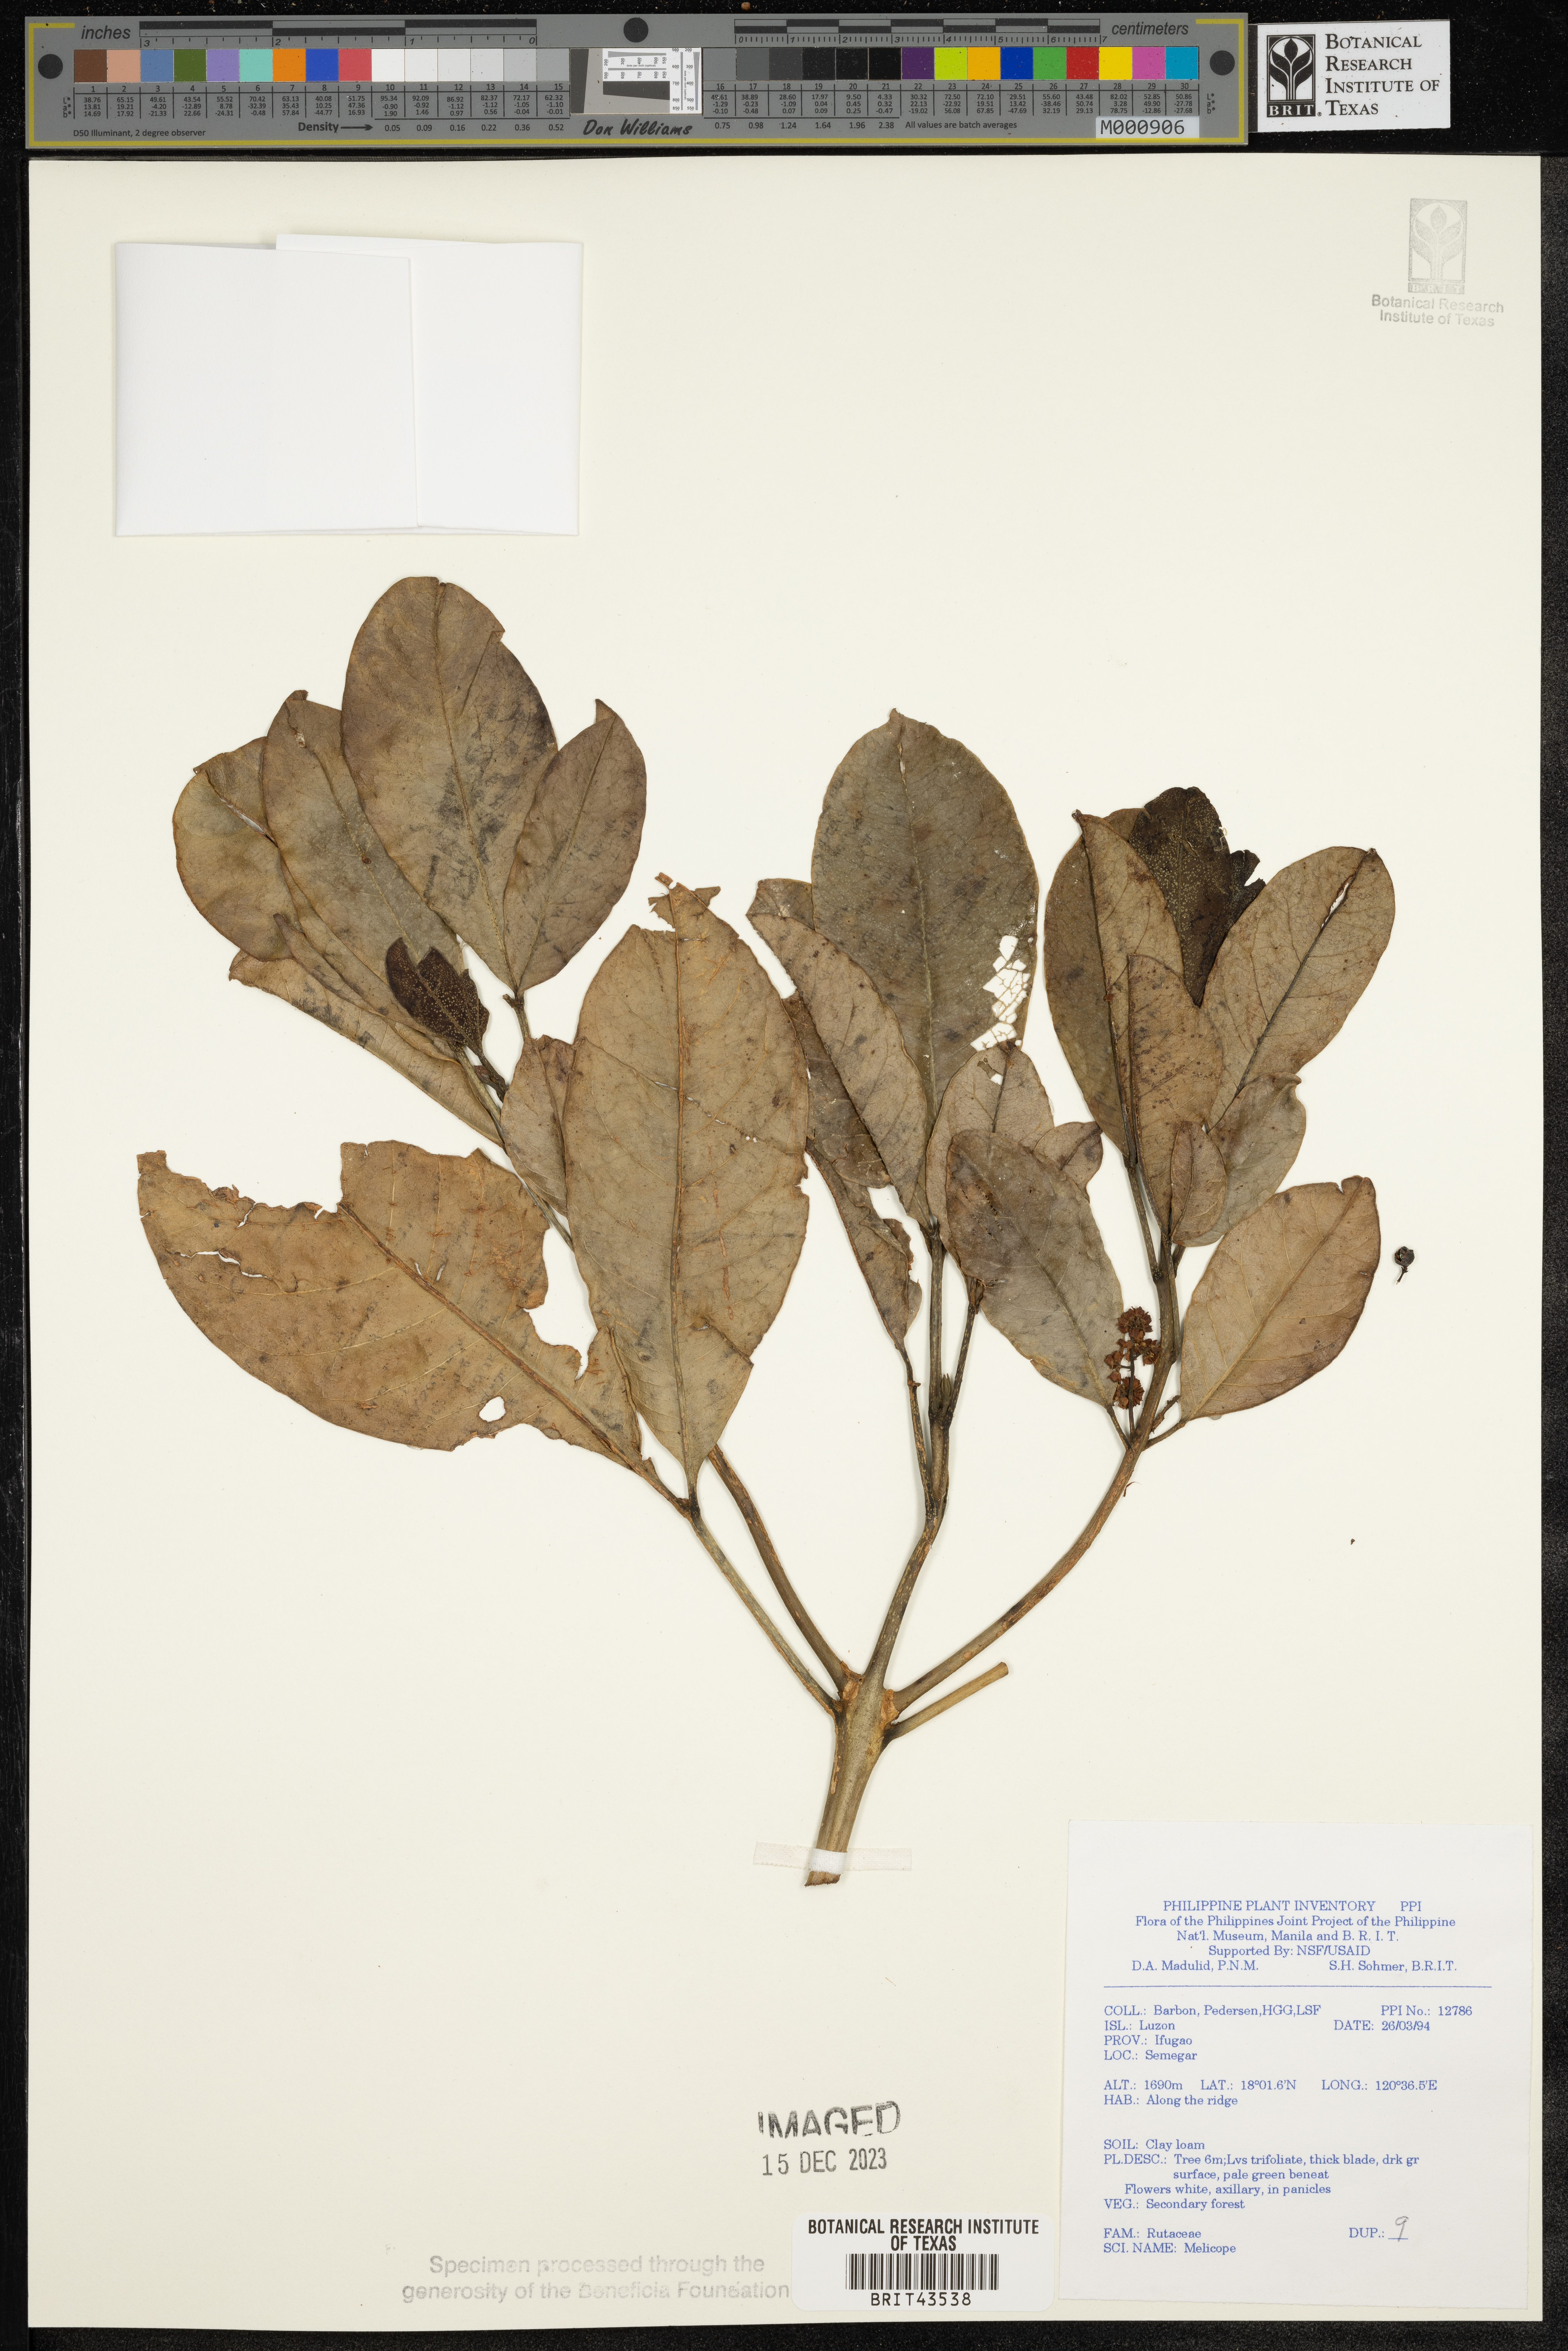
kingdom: Plantae
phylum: Tracheophyta
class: Magnoliopsida
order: Sapindales
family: Rutaceae
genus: Melicope
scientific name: Melicope
